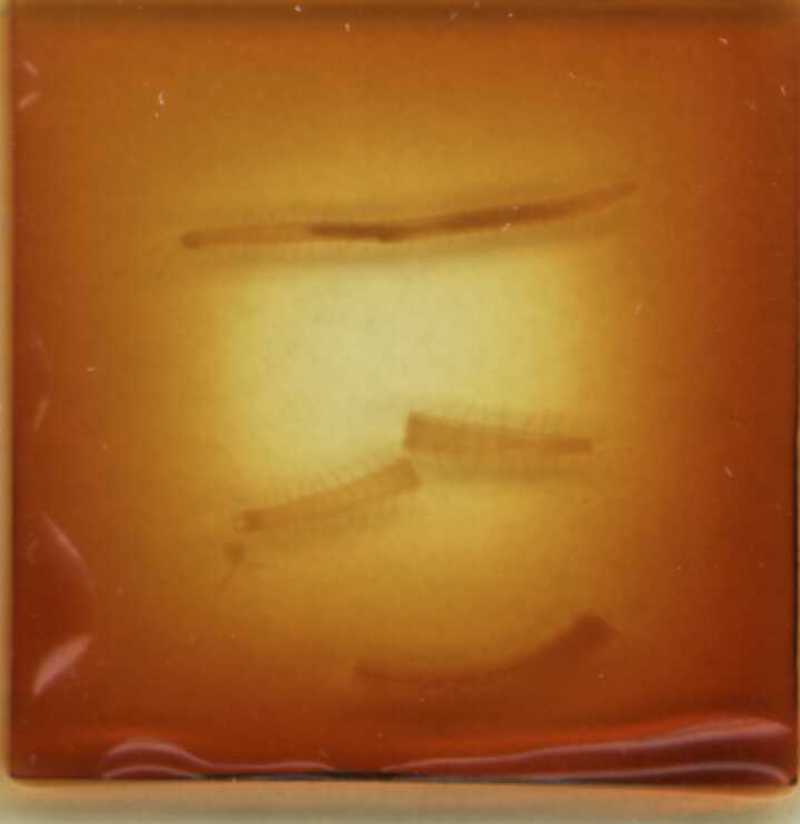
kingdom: Animalia
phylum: Arthropoda
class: Chilopoda
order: Geophilomorpha
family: Geophilidae
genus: Geophilus
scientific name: Geophilus guanophilus
